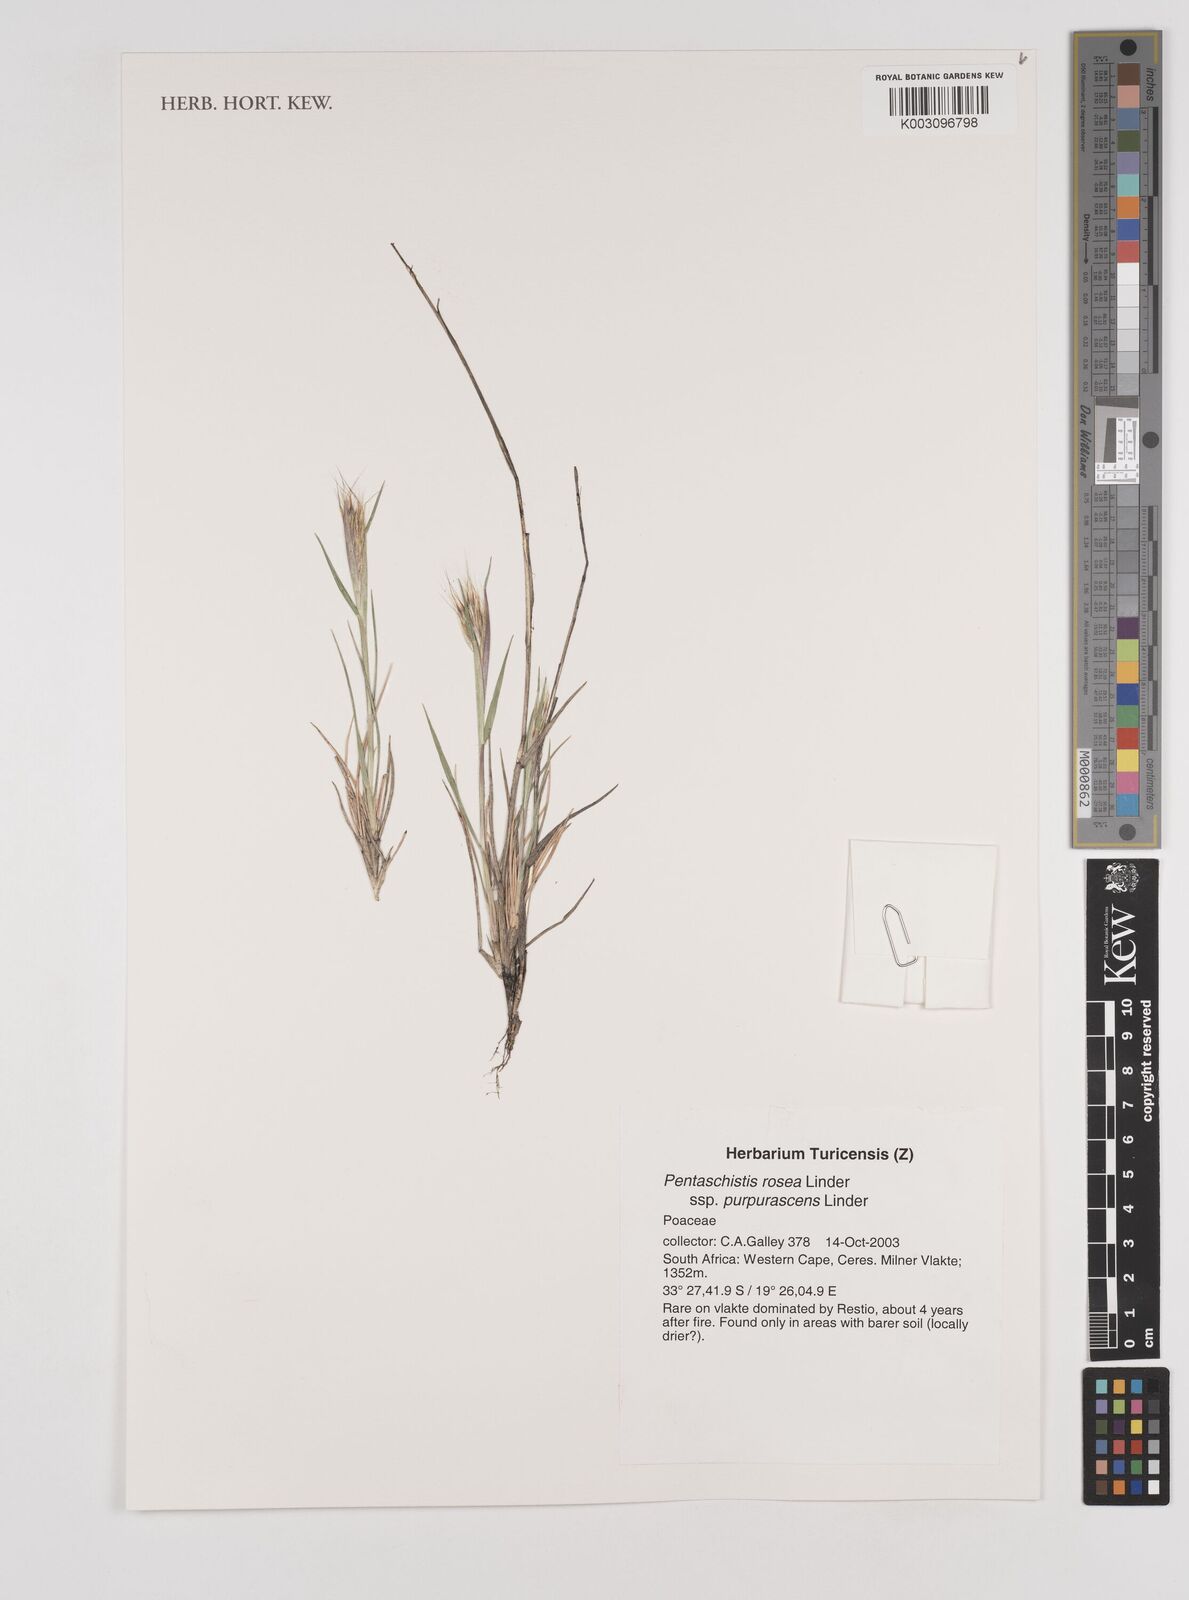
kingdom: Plantae
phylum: Tracheophyta
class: Liliopsida
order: Poales
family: Poaceae
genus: Pentameris
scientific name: Pentameris rosea
